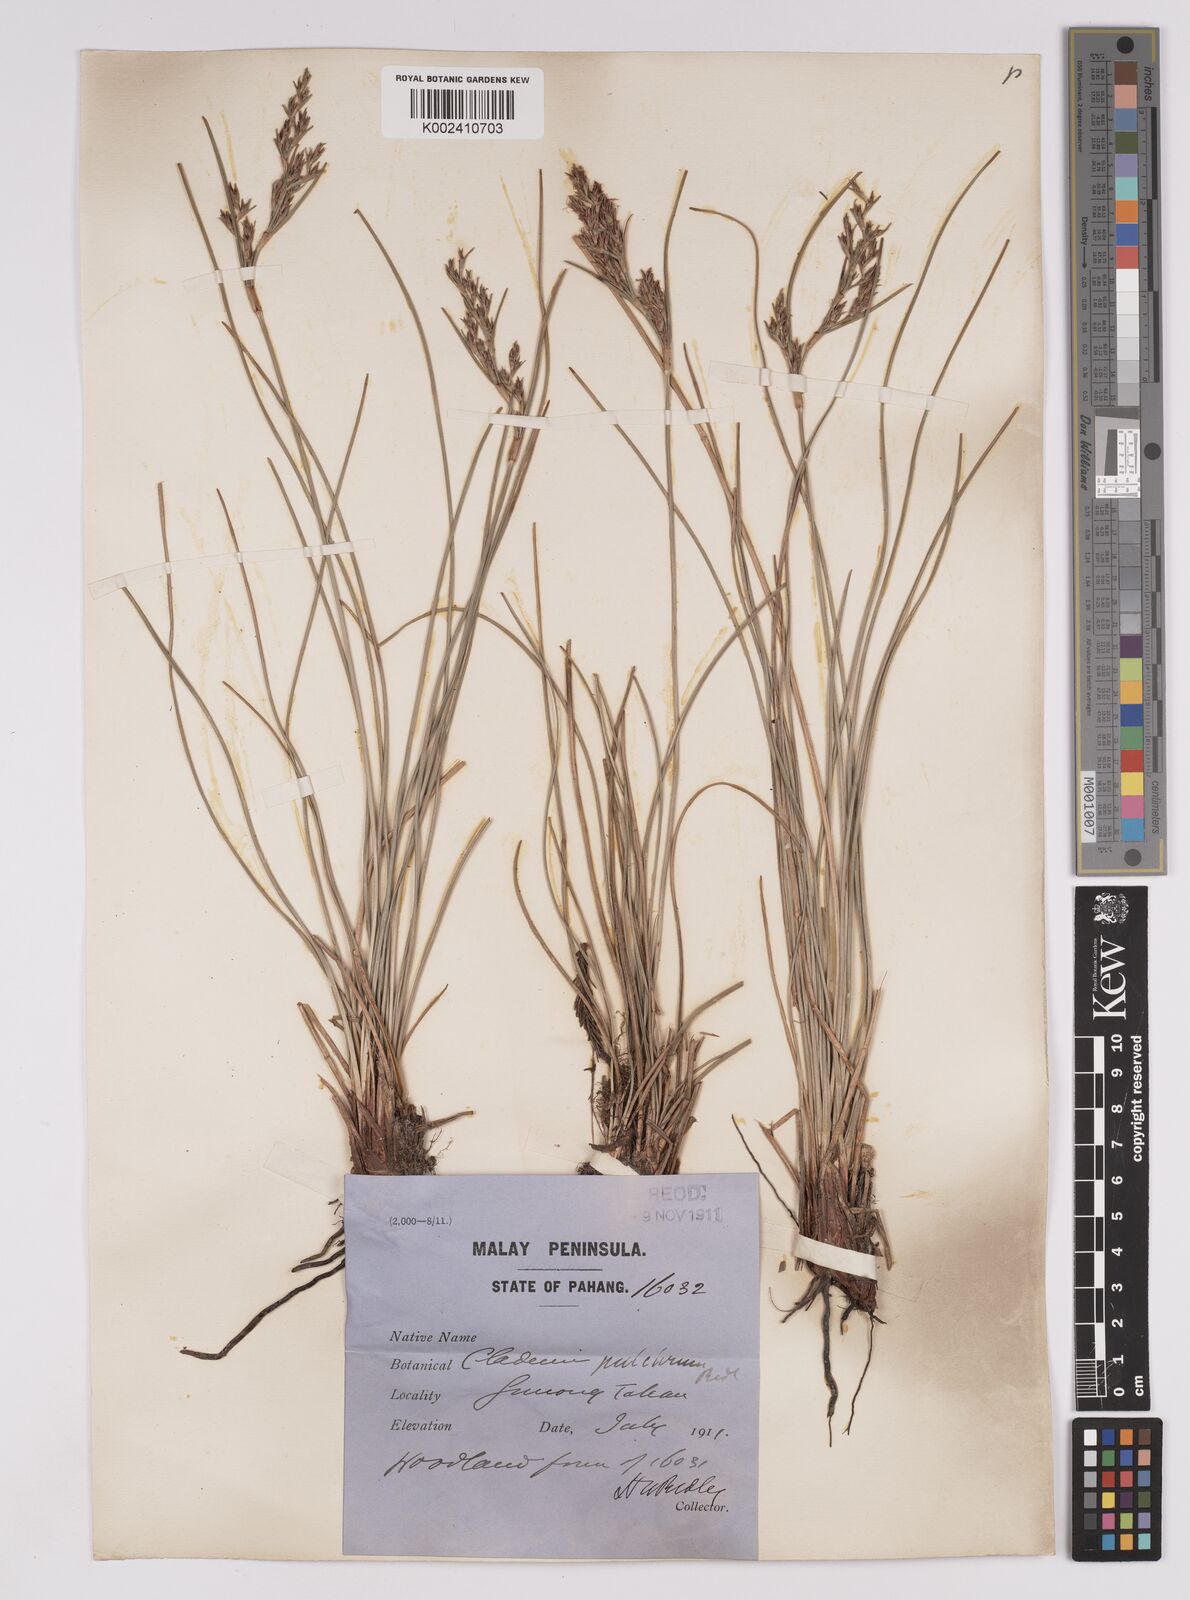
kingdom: Plantae
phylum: Tracheophyta
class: Liliopsida
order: Poales
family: Cyperaceae
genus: Anthelepis
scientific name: Anthelepis undulata
